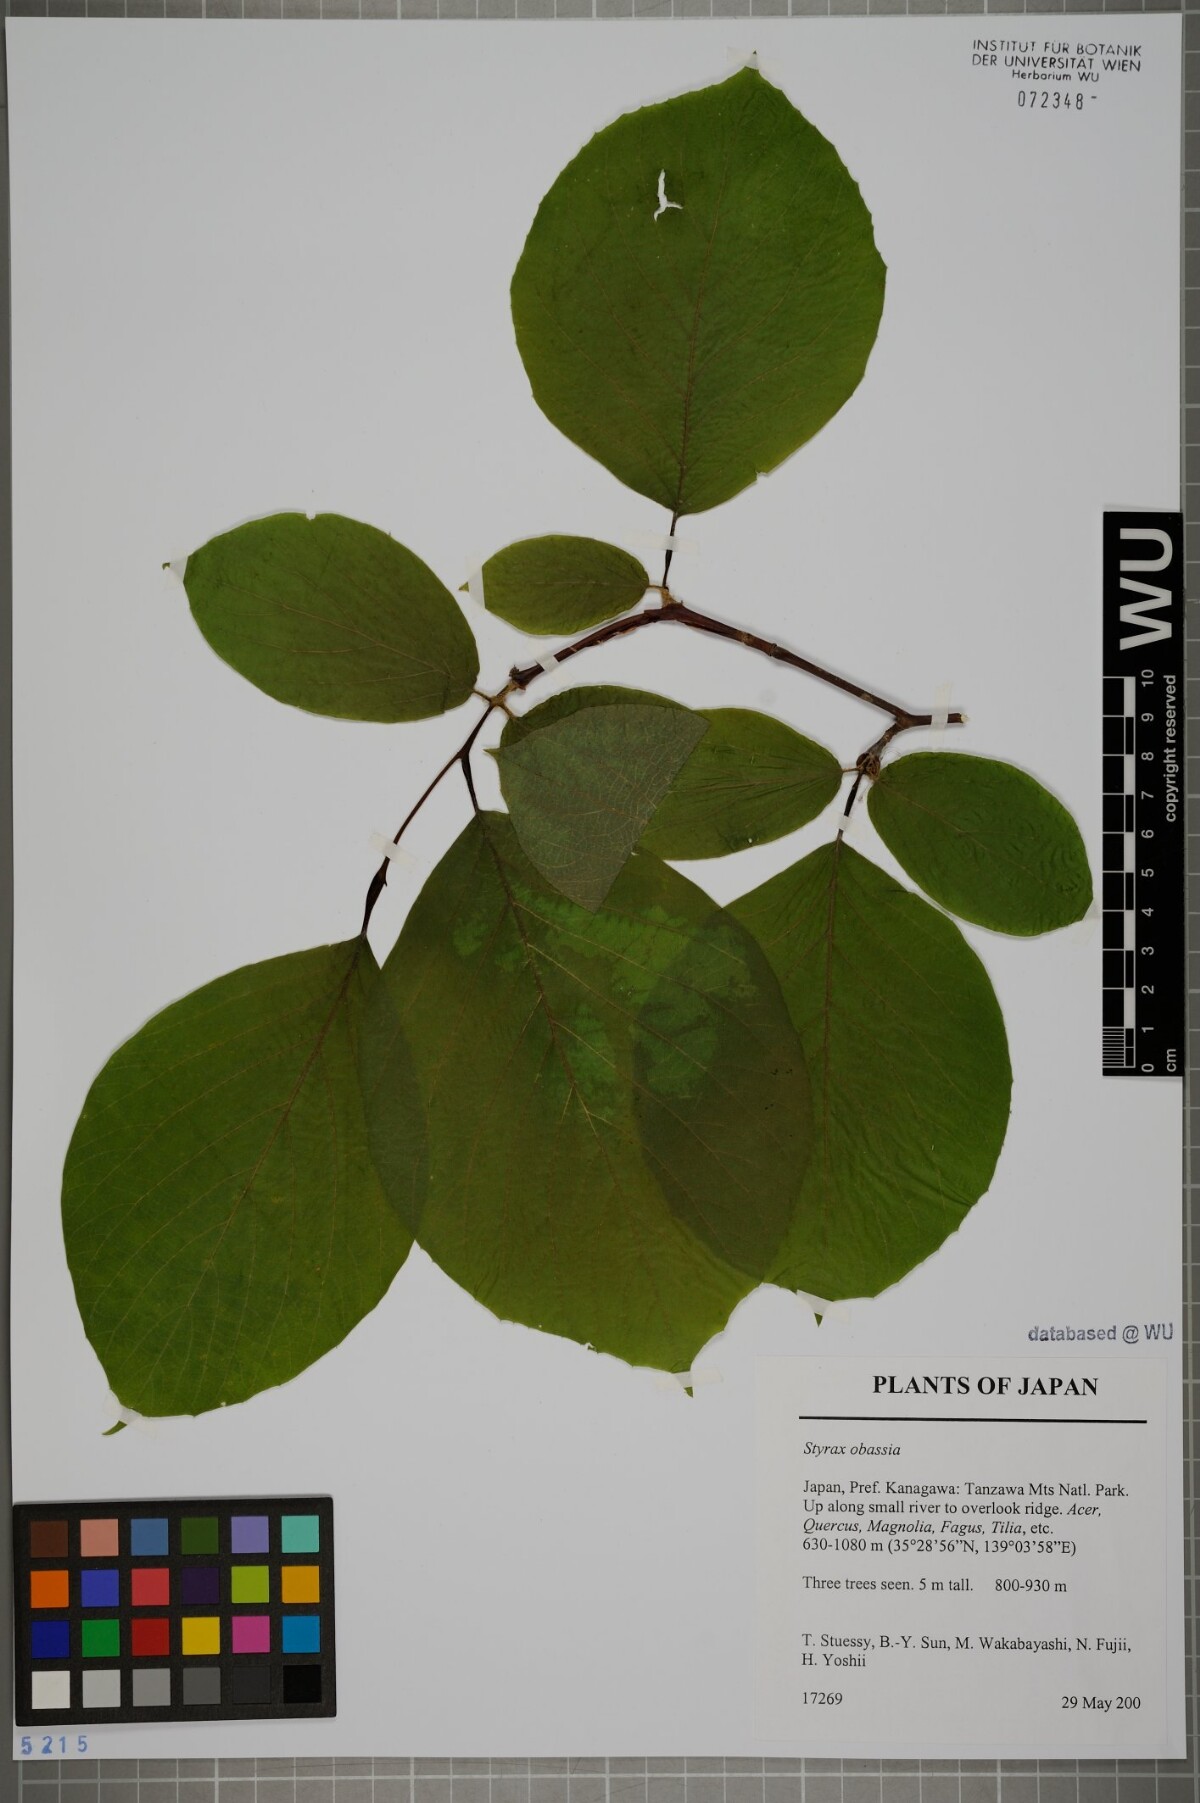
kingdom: Plantae
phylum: Tracheophyta
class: Magnoliopsida
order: Ericales
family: Styracaceae
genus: Styrax
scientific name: Styrax obassia
